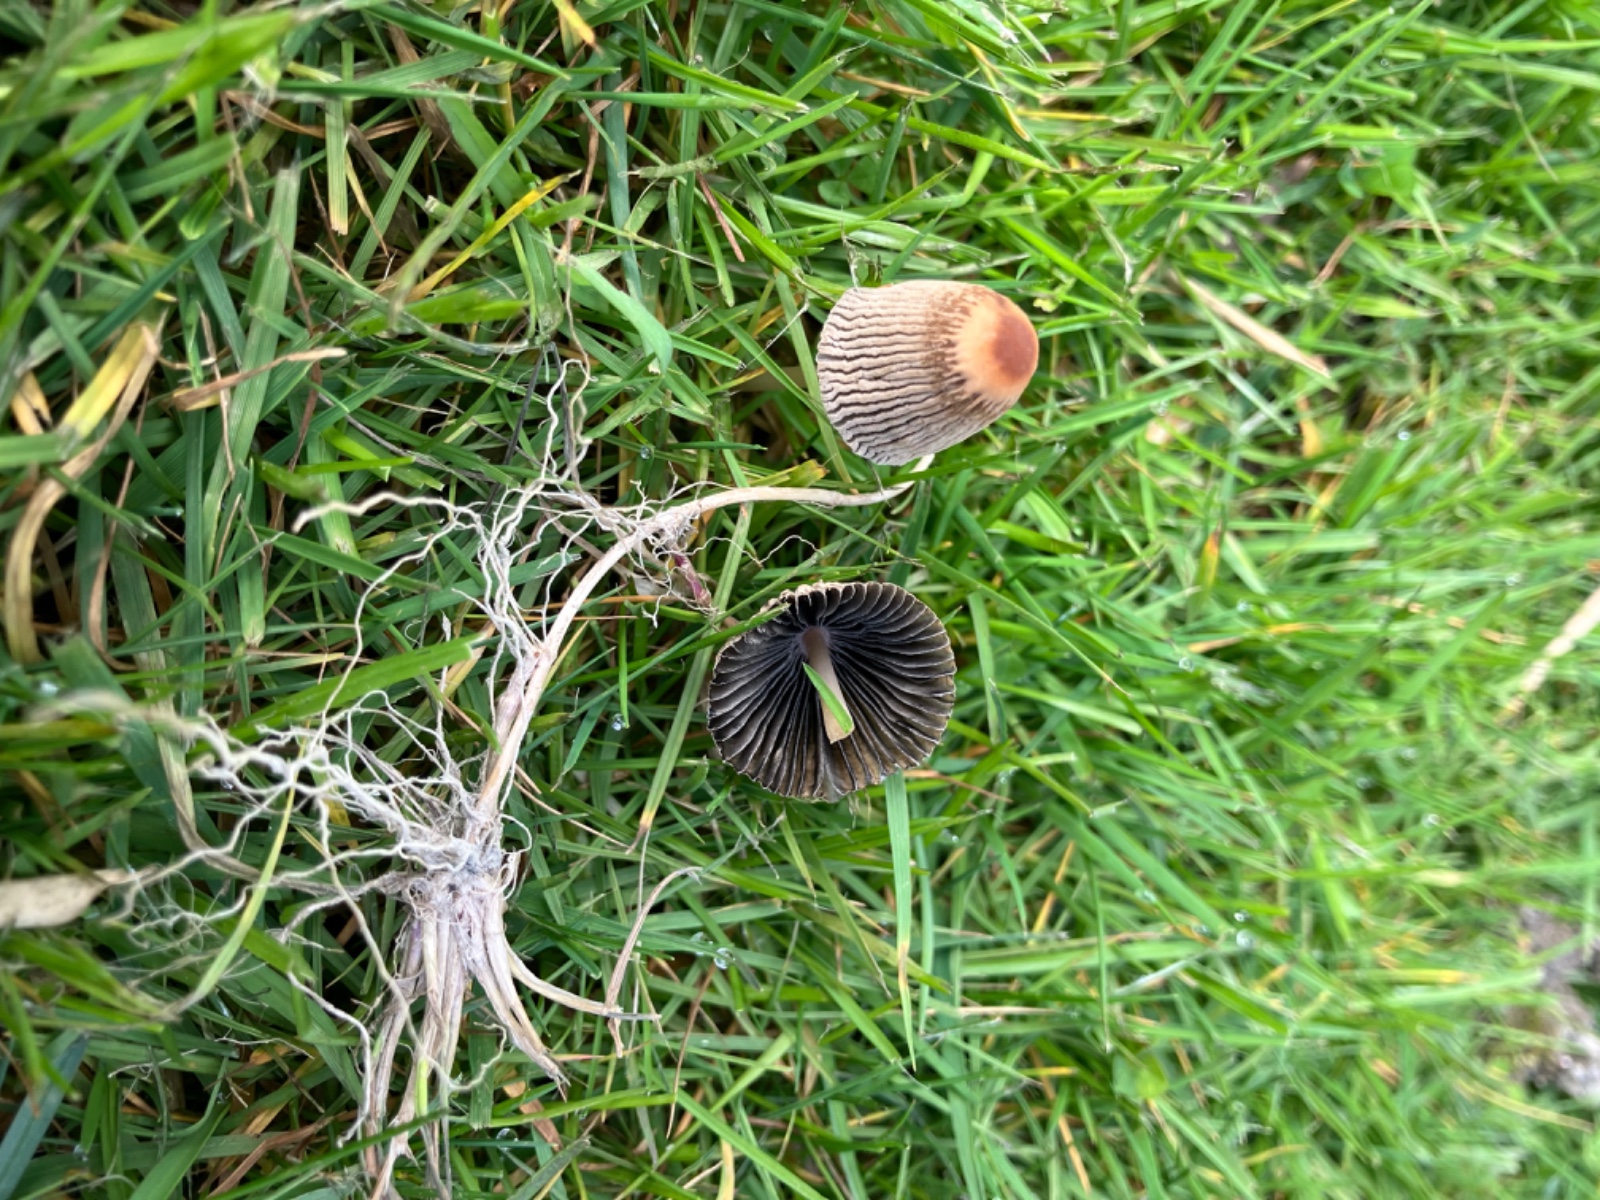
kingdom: Fungi
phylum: Basidiomycota
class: Agaricomycetes
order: Agaricales
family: Psathyrellaceae
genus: Parasola
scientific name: Parasola schroeteri
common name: bredsporet hjulhat
